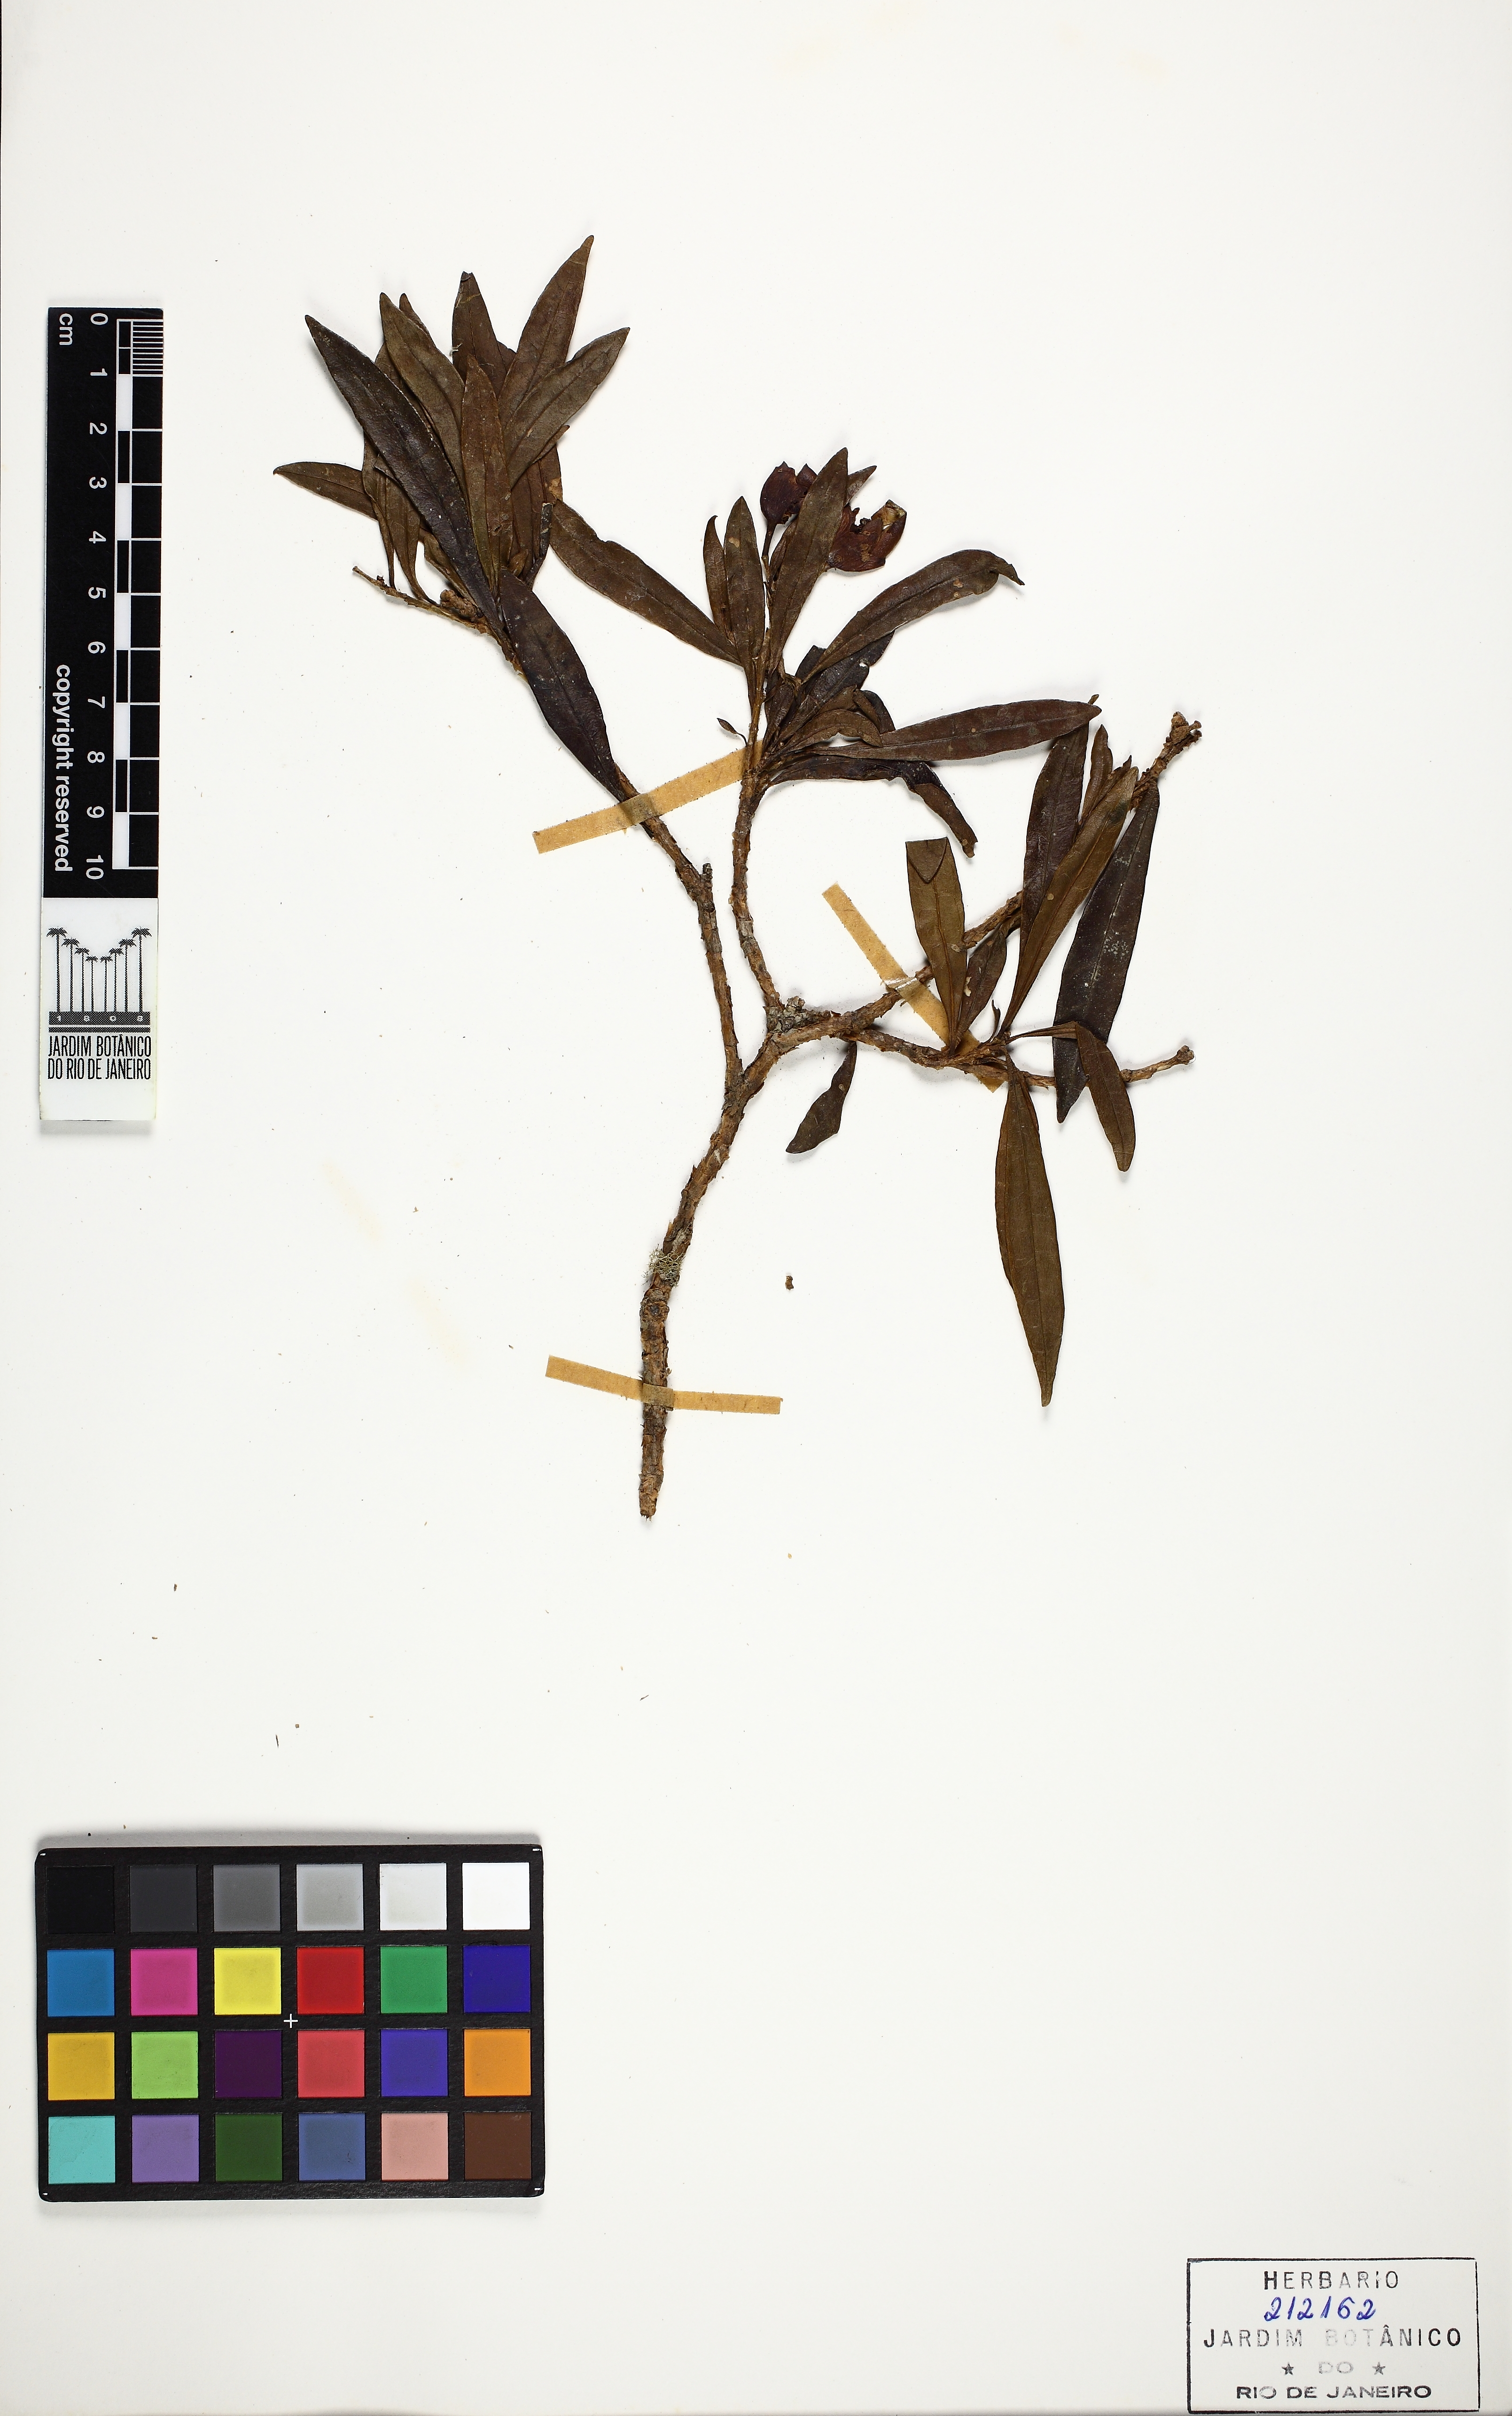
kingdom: Plantae
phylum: Tracheophyta
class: Magnoliopsida
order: Solanales
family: Solanaceae
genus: Brunfelsia
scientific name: Brunfelsia brasiliensis
